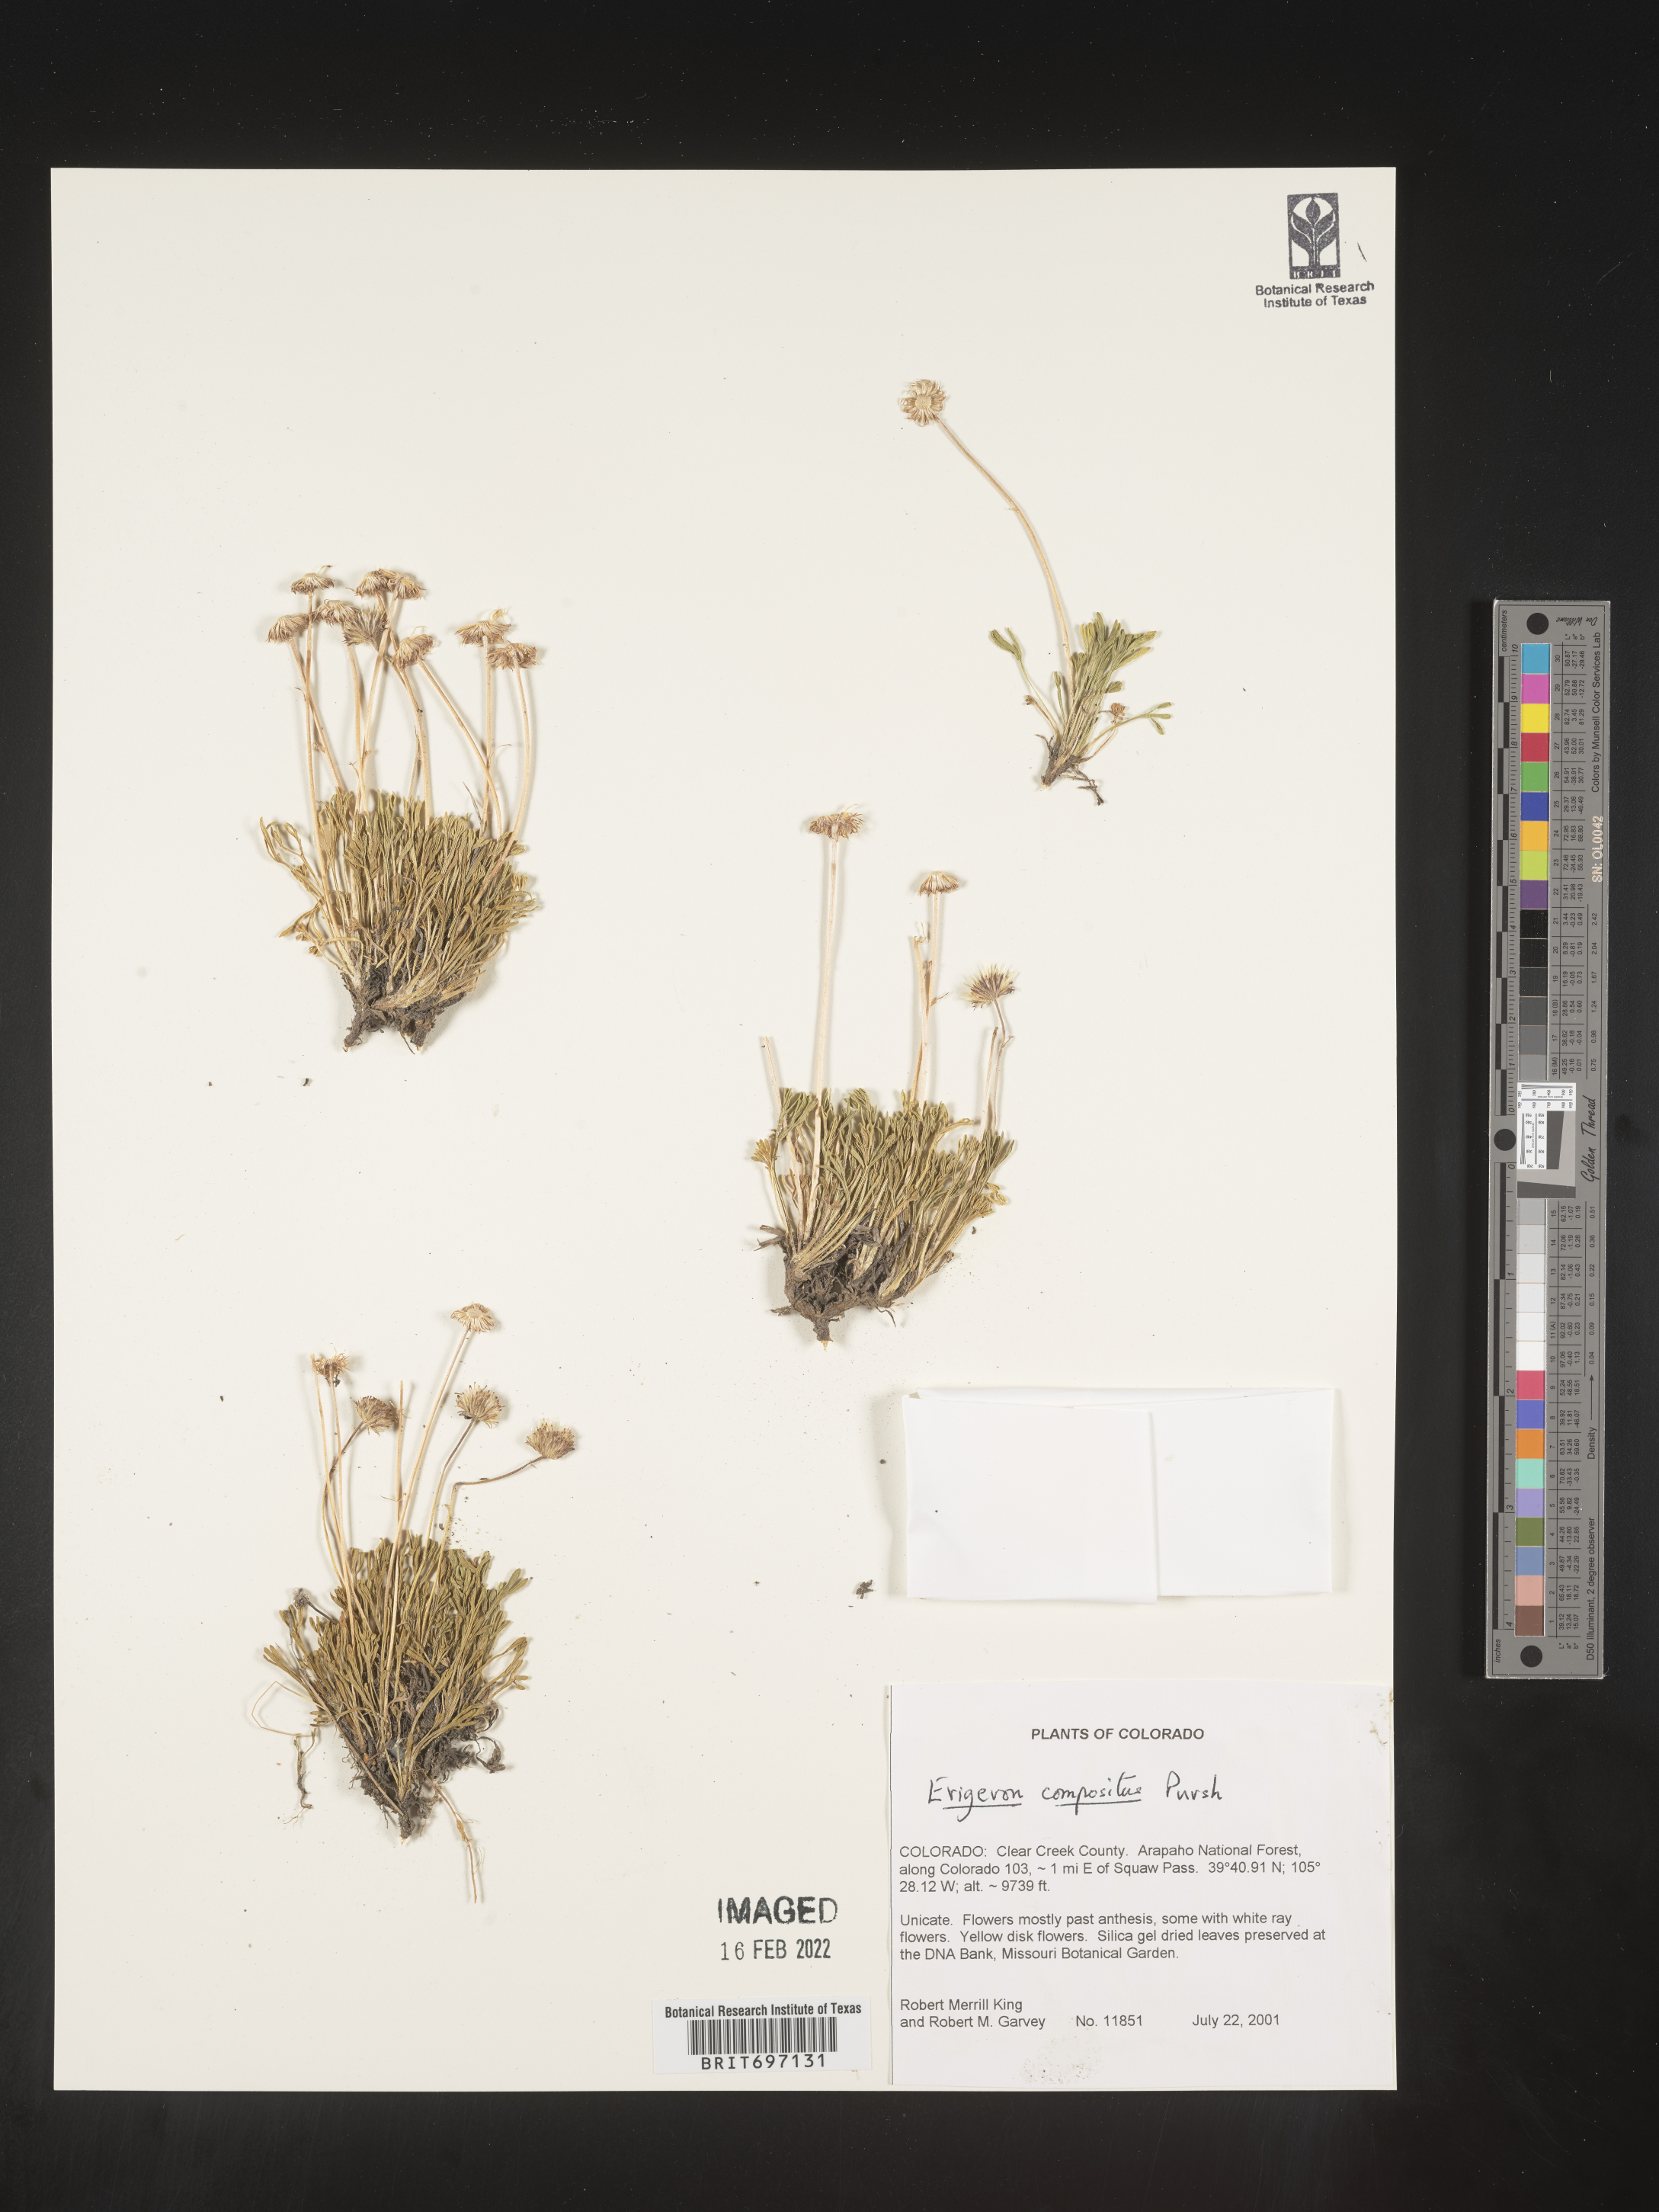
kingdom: Plantae
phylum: Tracheophyta
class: Magnoliopsida
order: Asterales
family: Asteraceae
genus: Erigeron
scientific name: Erigeron compositus
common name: Dwarf mountain fleabane
